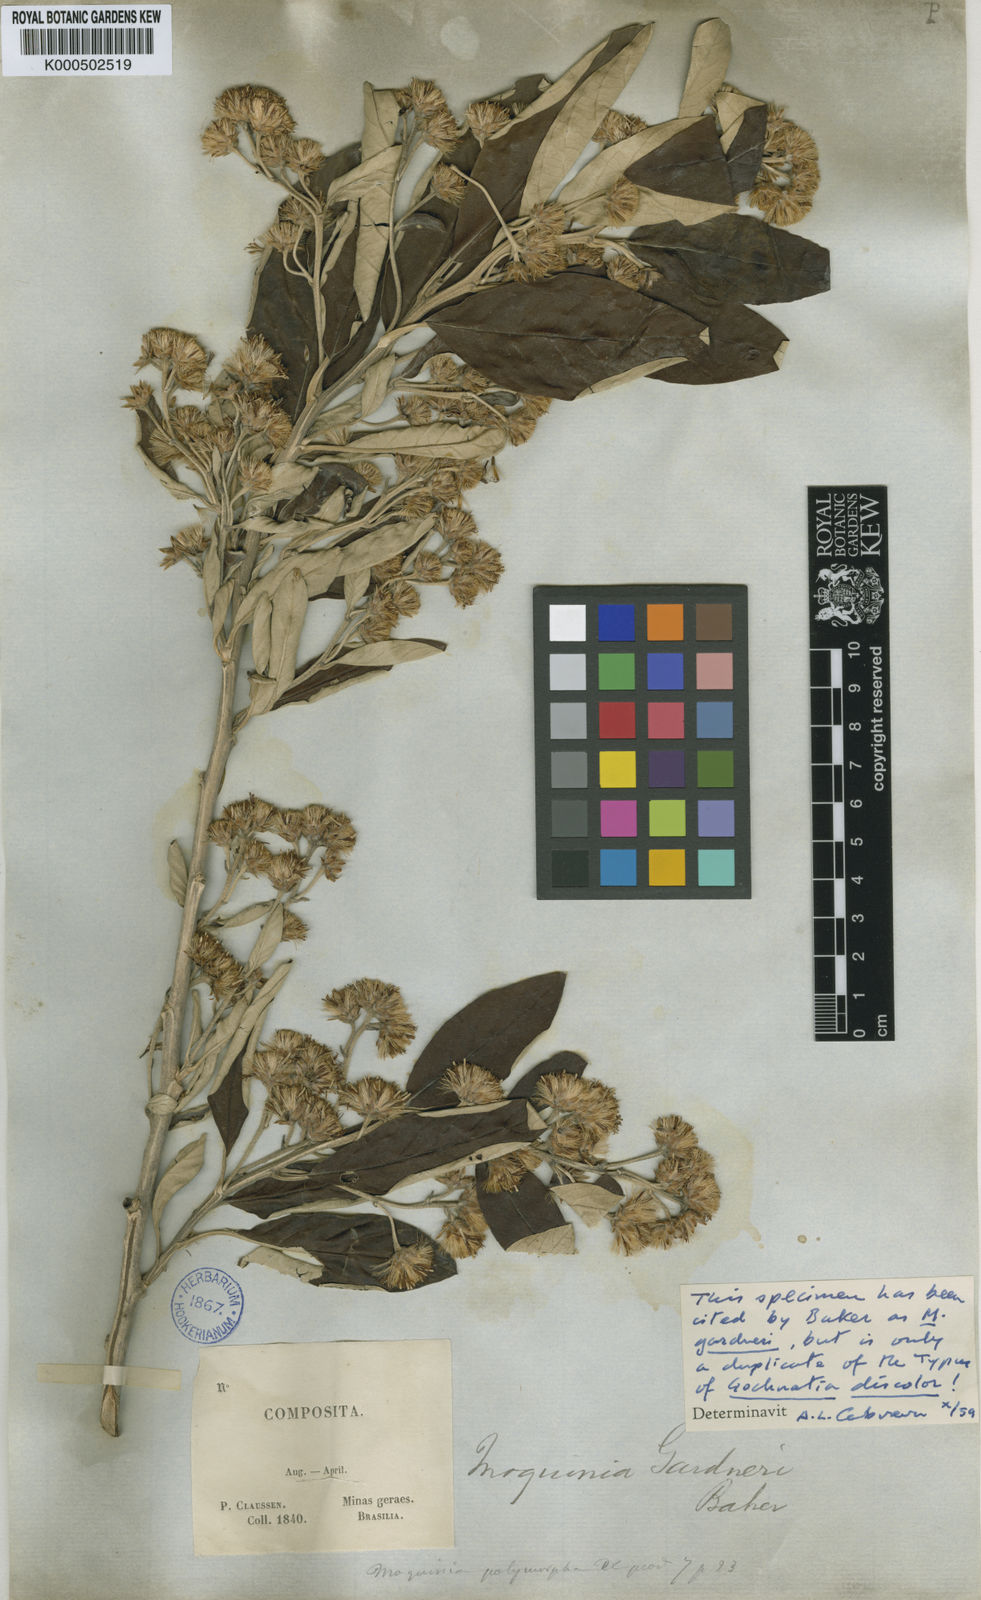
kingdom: Plantae
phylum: Tracheophyta
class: Magnoliopsida
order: Asterales
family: Asteraceae
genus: Moquiniastrum
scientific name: Moquiniastrum discolor
